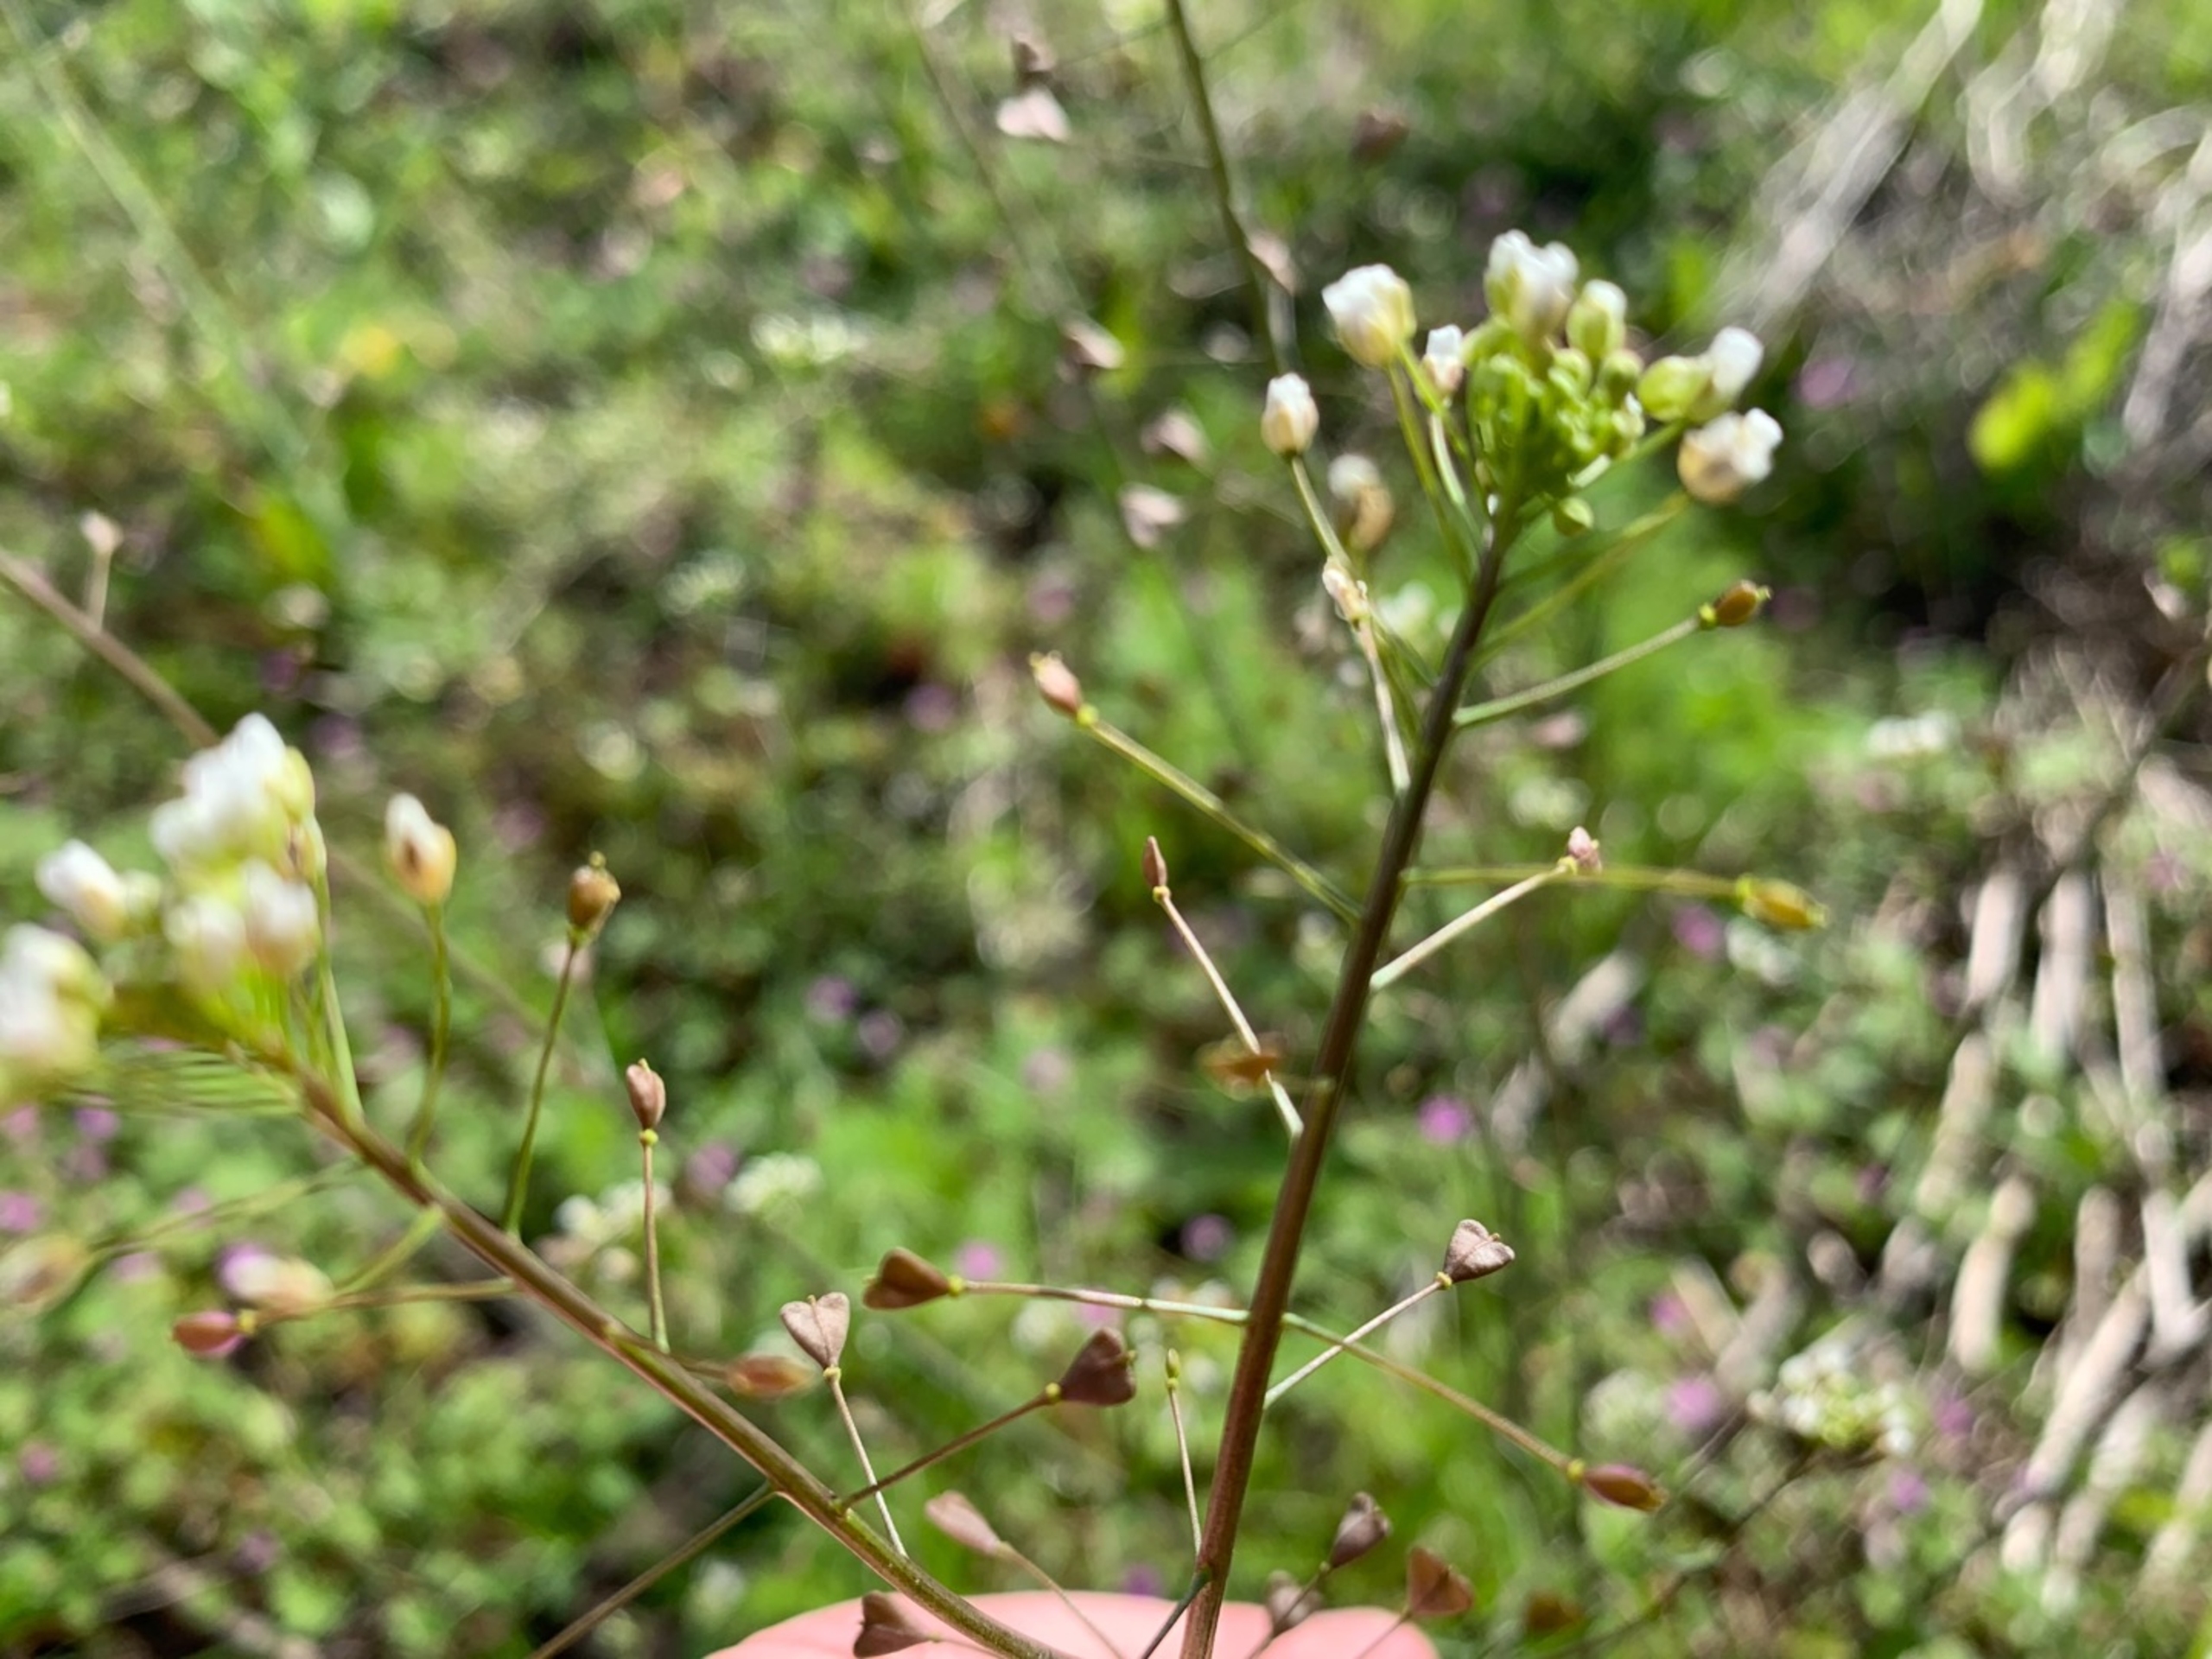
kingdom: Plantae
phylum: Tracheophyta
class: Magnoliopsida
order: Brassicales
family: Brassicaceae
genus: Capsella
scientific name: Capsella bursa-pastoris
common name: Hyrdetaske
